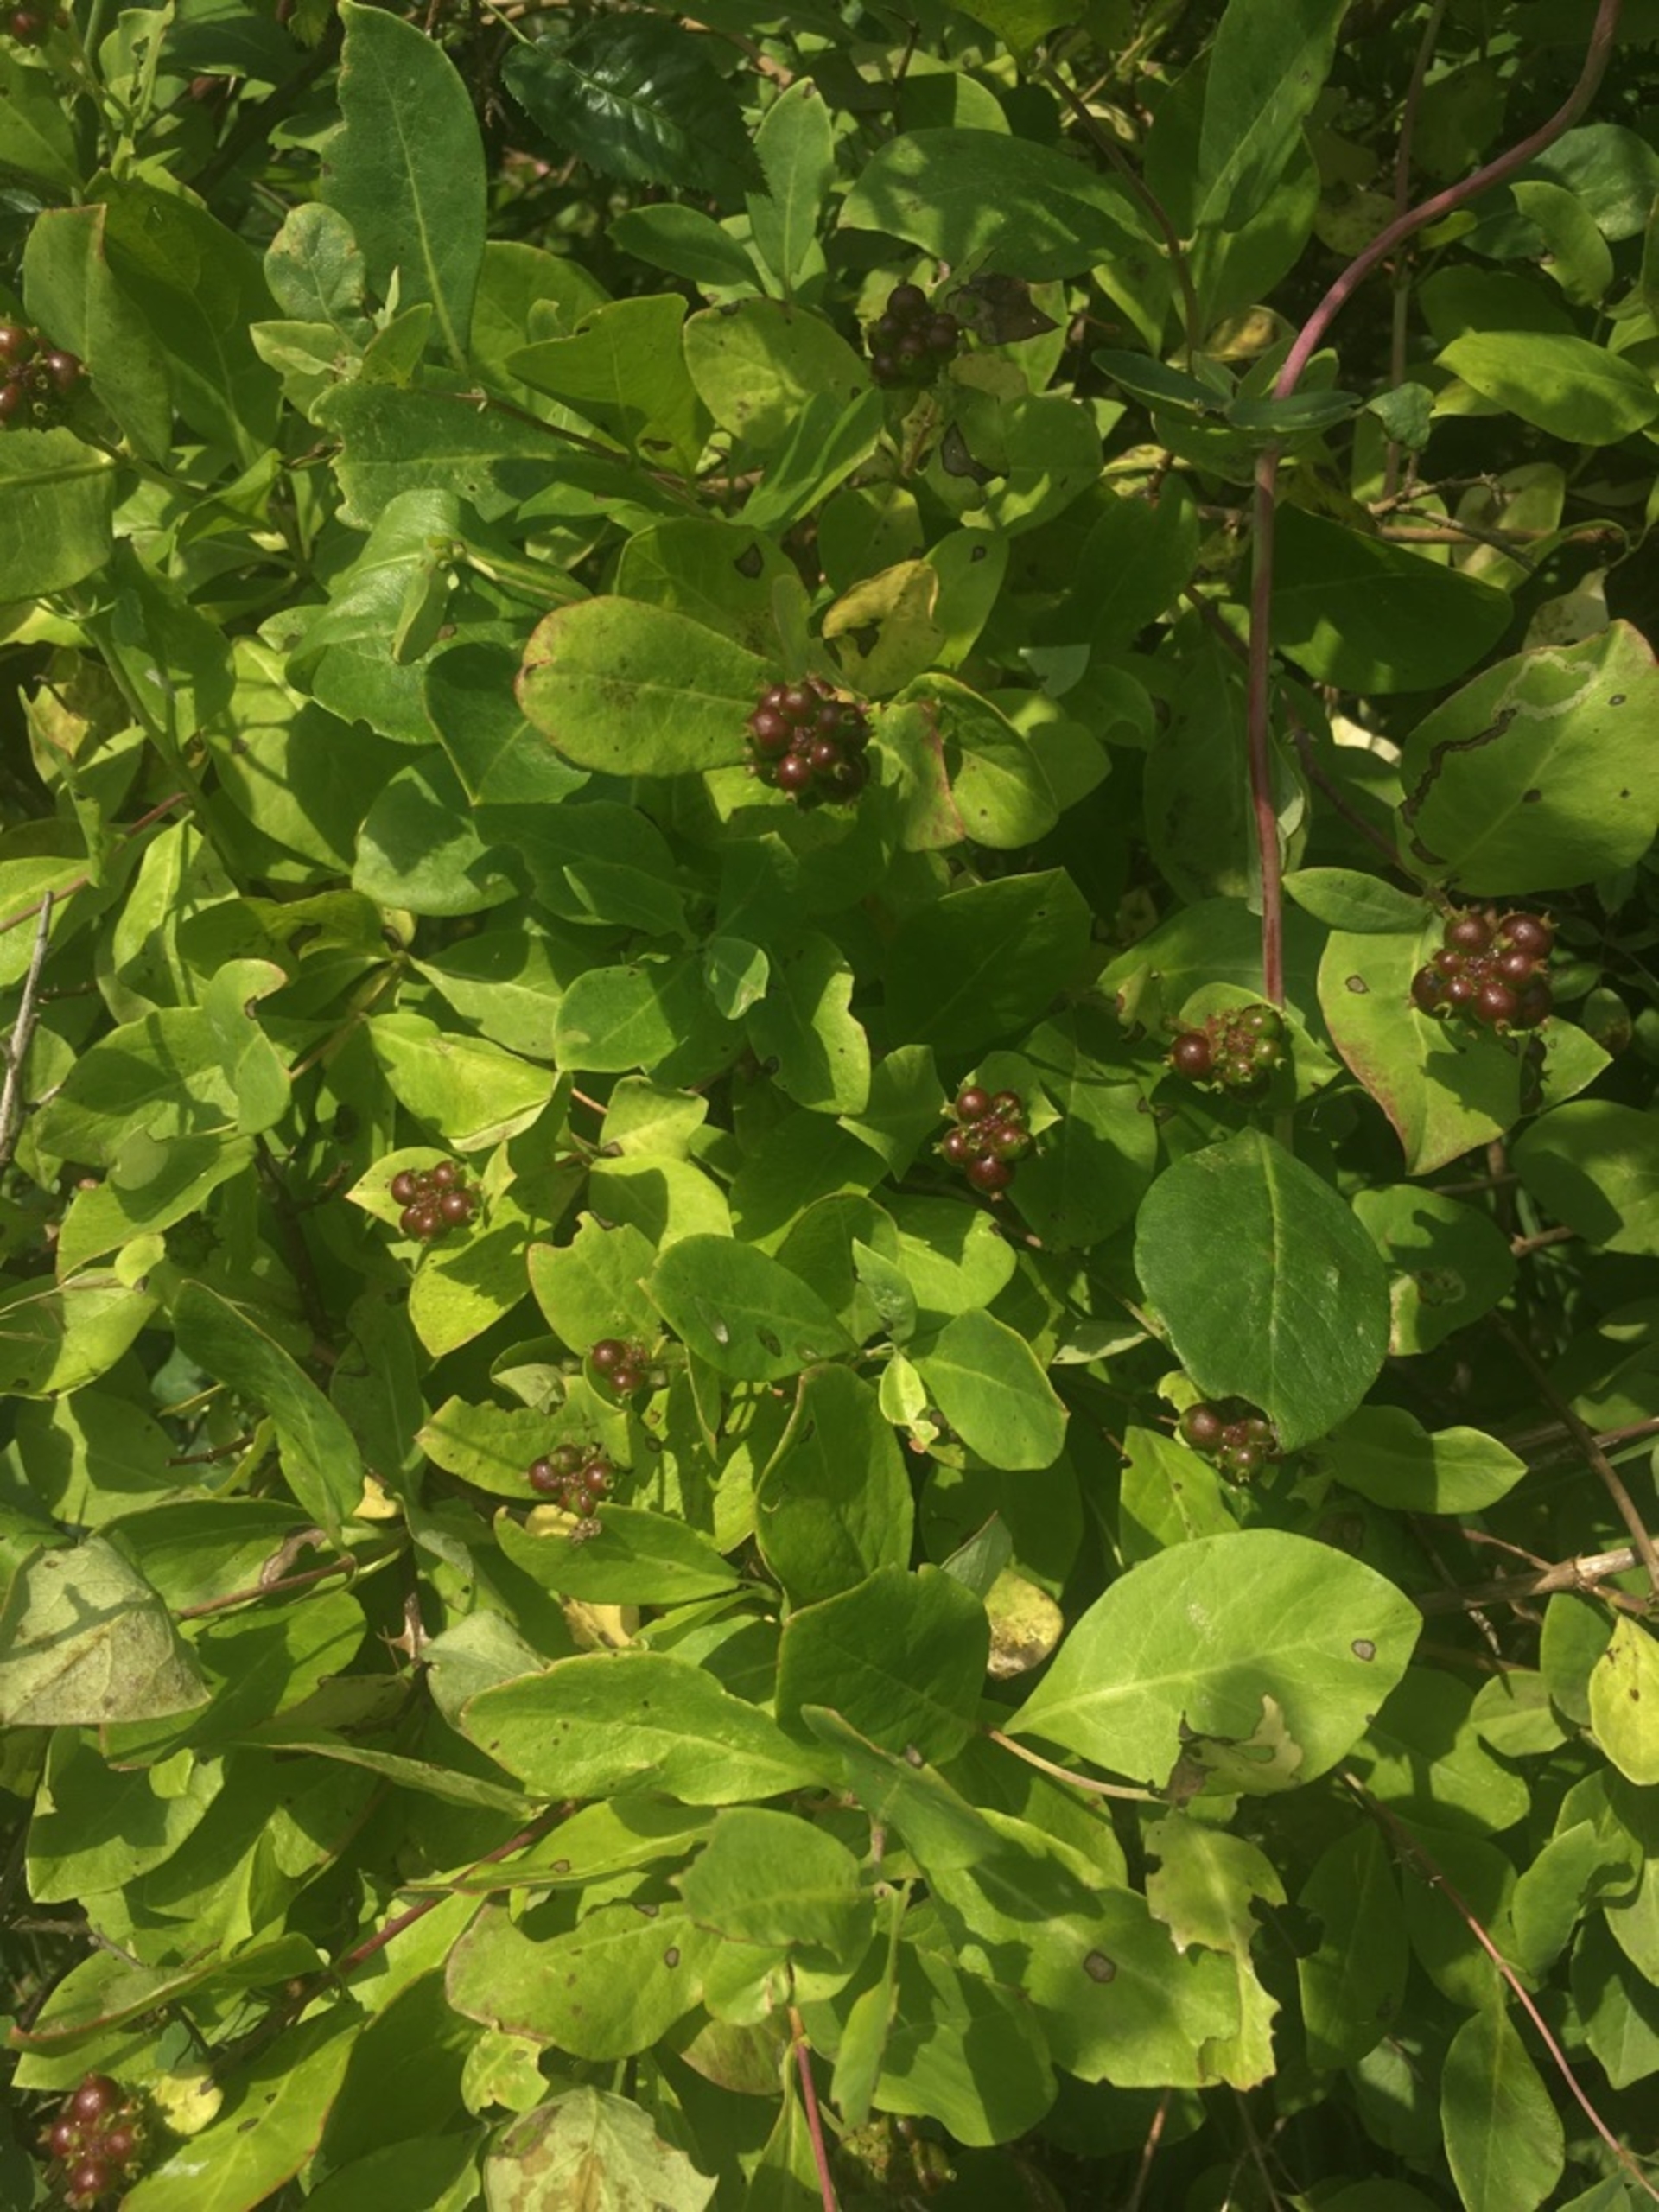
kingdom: Plantae
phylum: Tracheophyta
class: Magnoliopsida
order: Dipsacales
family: Caprifoliaceae
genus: Lonicera
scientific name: Lonicera periclymenum
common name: Almindelig gedeblad
